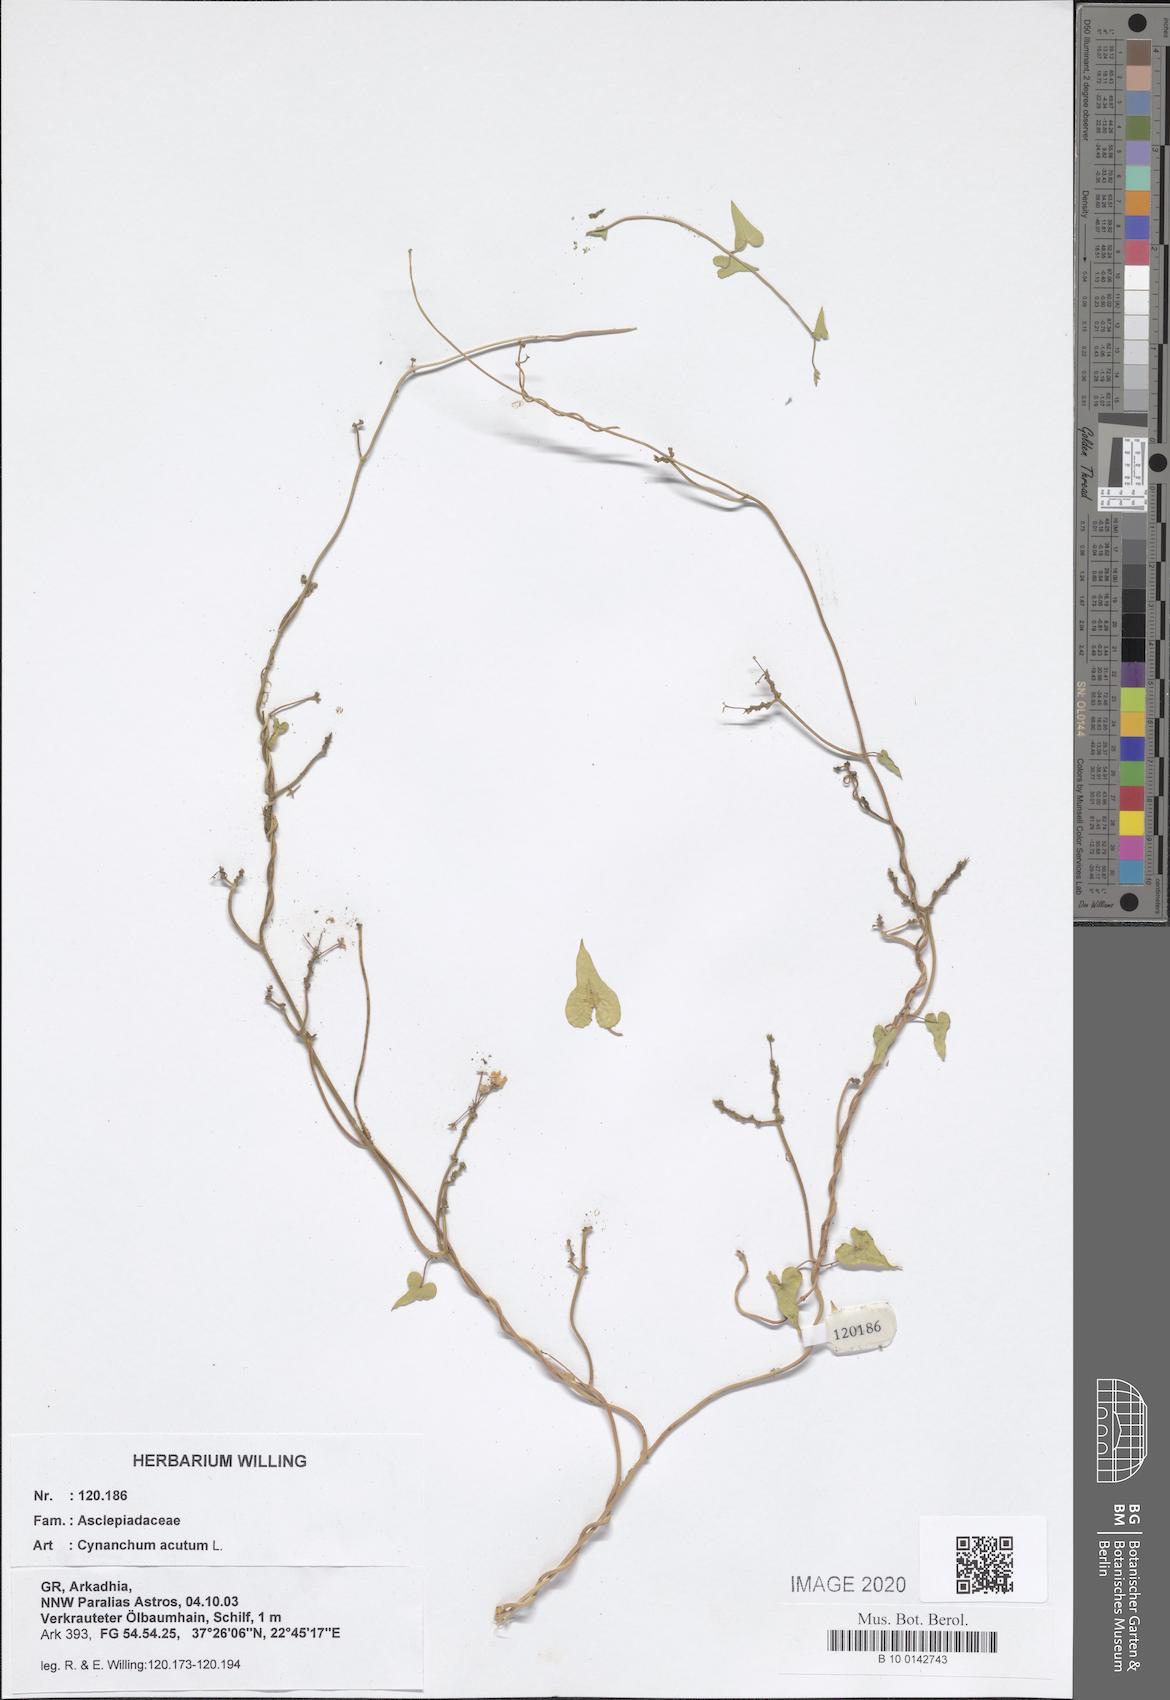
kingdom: Plantae
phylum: Tracheophyta
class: Magnoliopsida
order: Gentianales
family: Apocynaceae
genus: Cynanchum
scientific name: Cynanchum acutum
